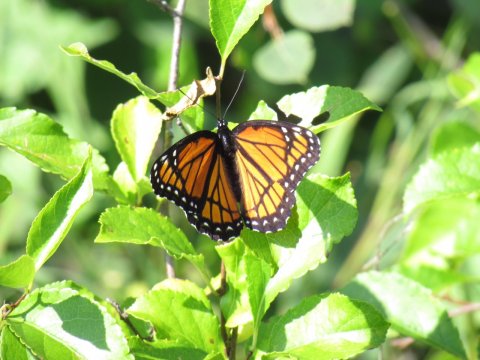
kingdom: Animalia
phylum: Arthropoda
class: Insecta
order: Lepidoptera
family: Nymphalidae
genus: Limenitis
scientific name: Limenitis archippus
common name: Viceroy
